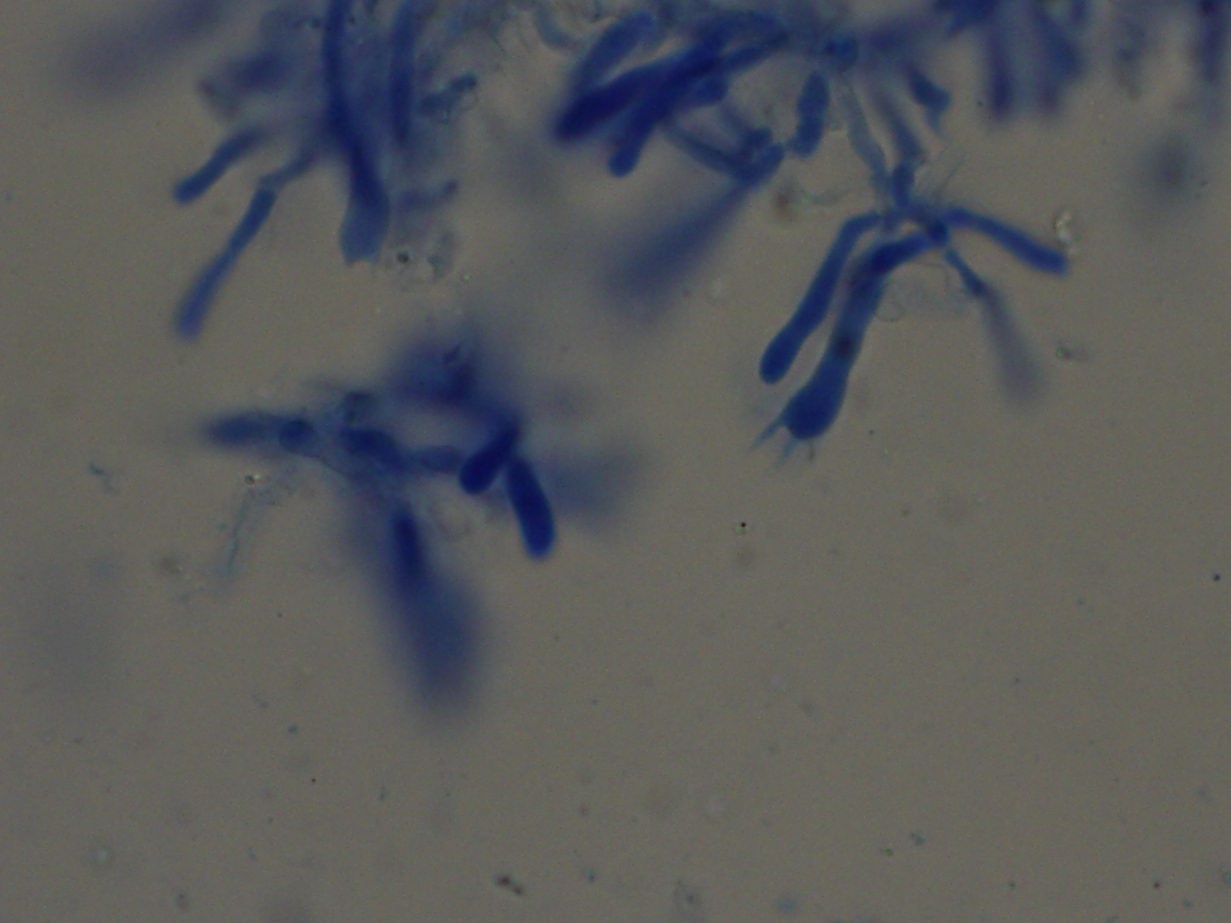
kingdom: Fungi
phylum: Basidiomycota
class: Agaricomycetes
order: Polyporales
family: Irpicaceae
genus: Byssomerulius
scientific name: Byssomerulius corium
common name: læder-åresvamp
